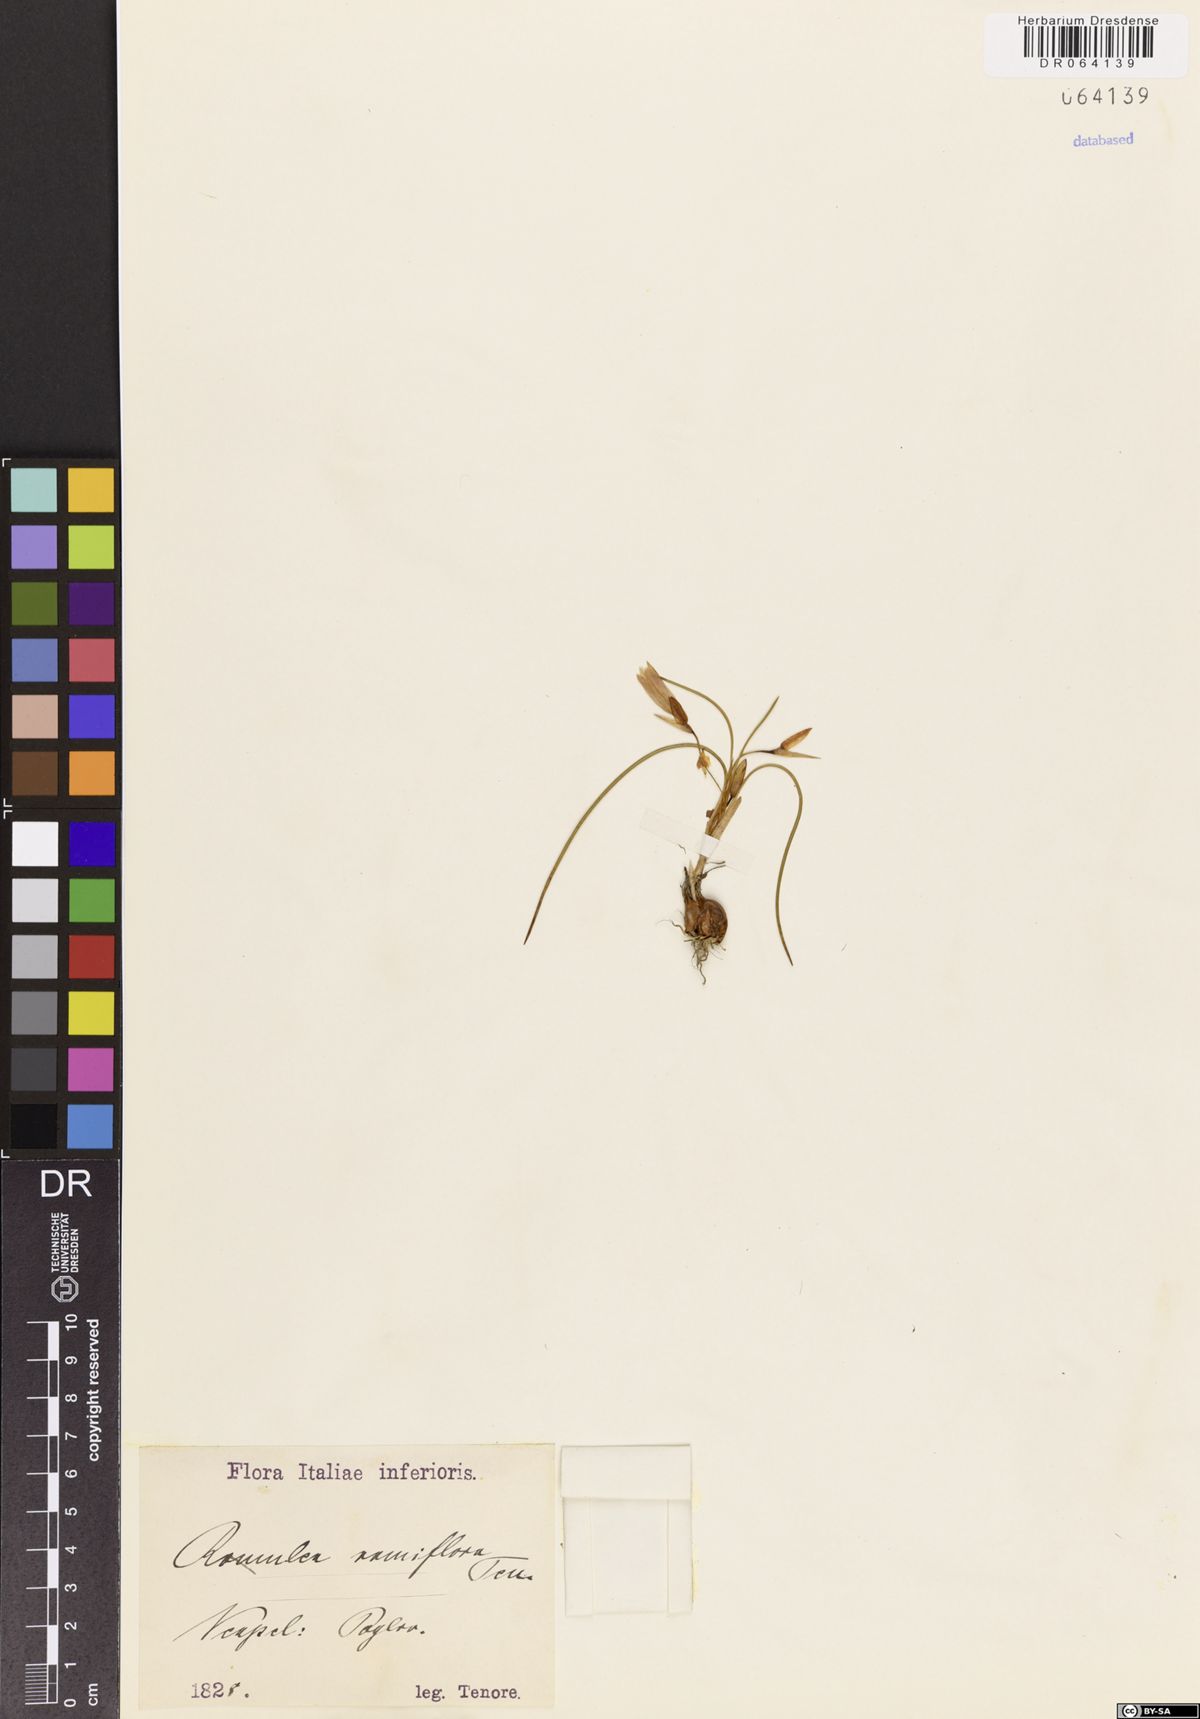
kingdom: Plantae
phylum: Tracheophyta
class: Liliopsida
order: Asparagales
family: Iridaceae
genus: Romulea
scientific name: Romulea ramiflora
